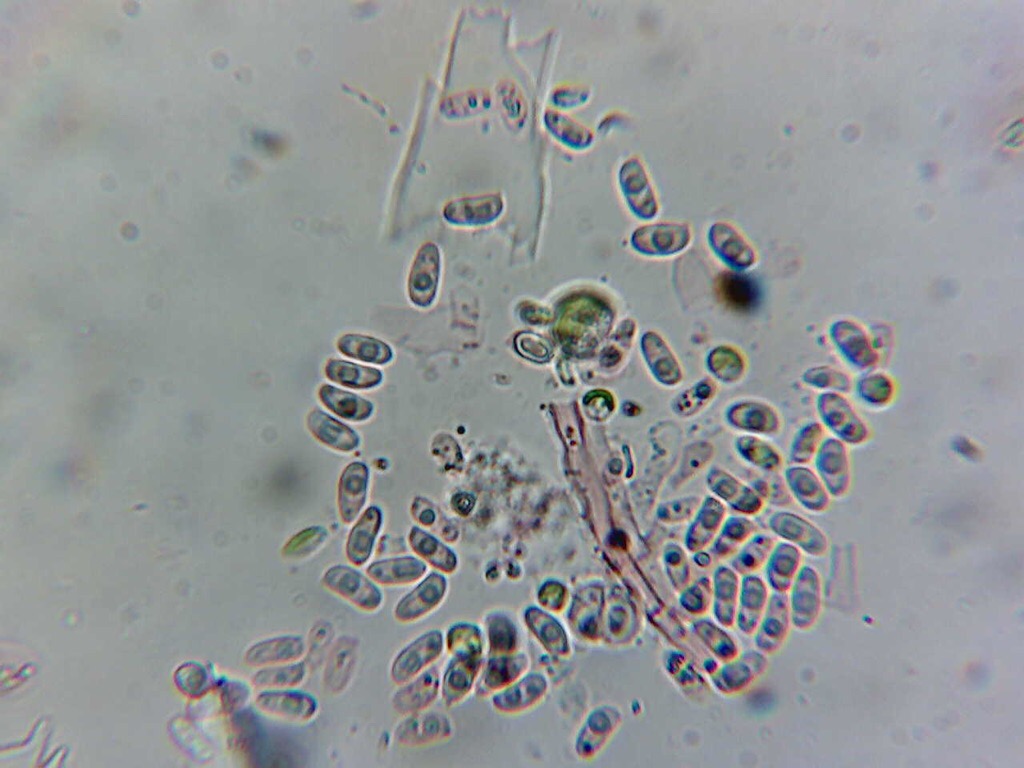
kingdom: Fungi
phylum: Basidiomycota
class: Agaricomycetes
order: Hymenochaetales
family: Hyphodontiaceae
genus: Hyphodontia
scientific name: Hyphodontia quercina
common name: ege-tandsvamp
